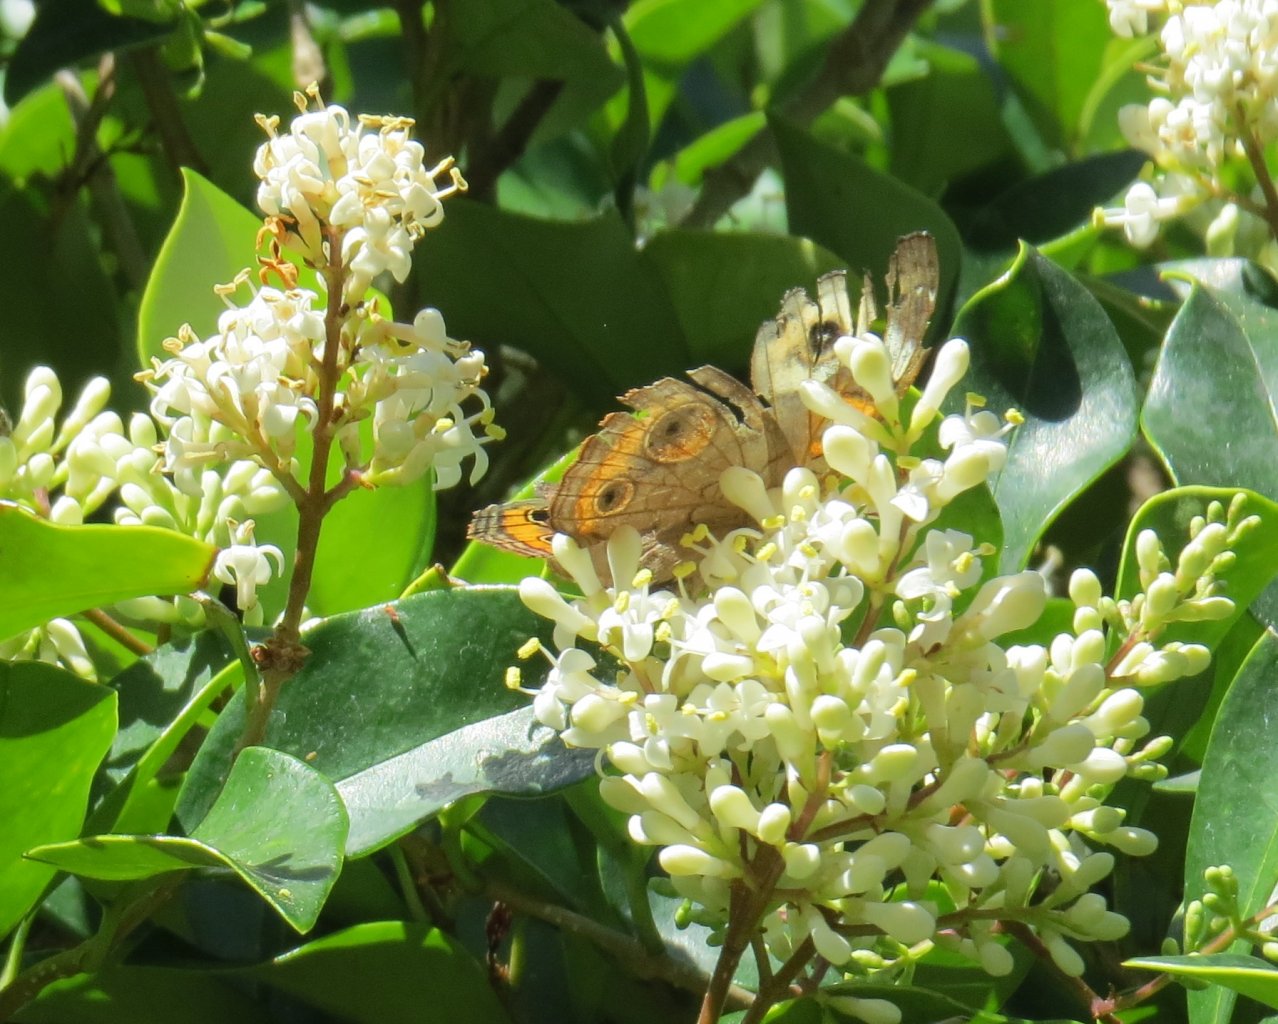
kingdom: Animalia
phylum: Arthropoda
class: Insecta
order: Lepidoptera
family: Nymphalidae
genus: Junonia
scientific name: Junonia coenia
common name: Common Buckeye
